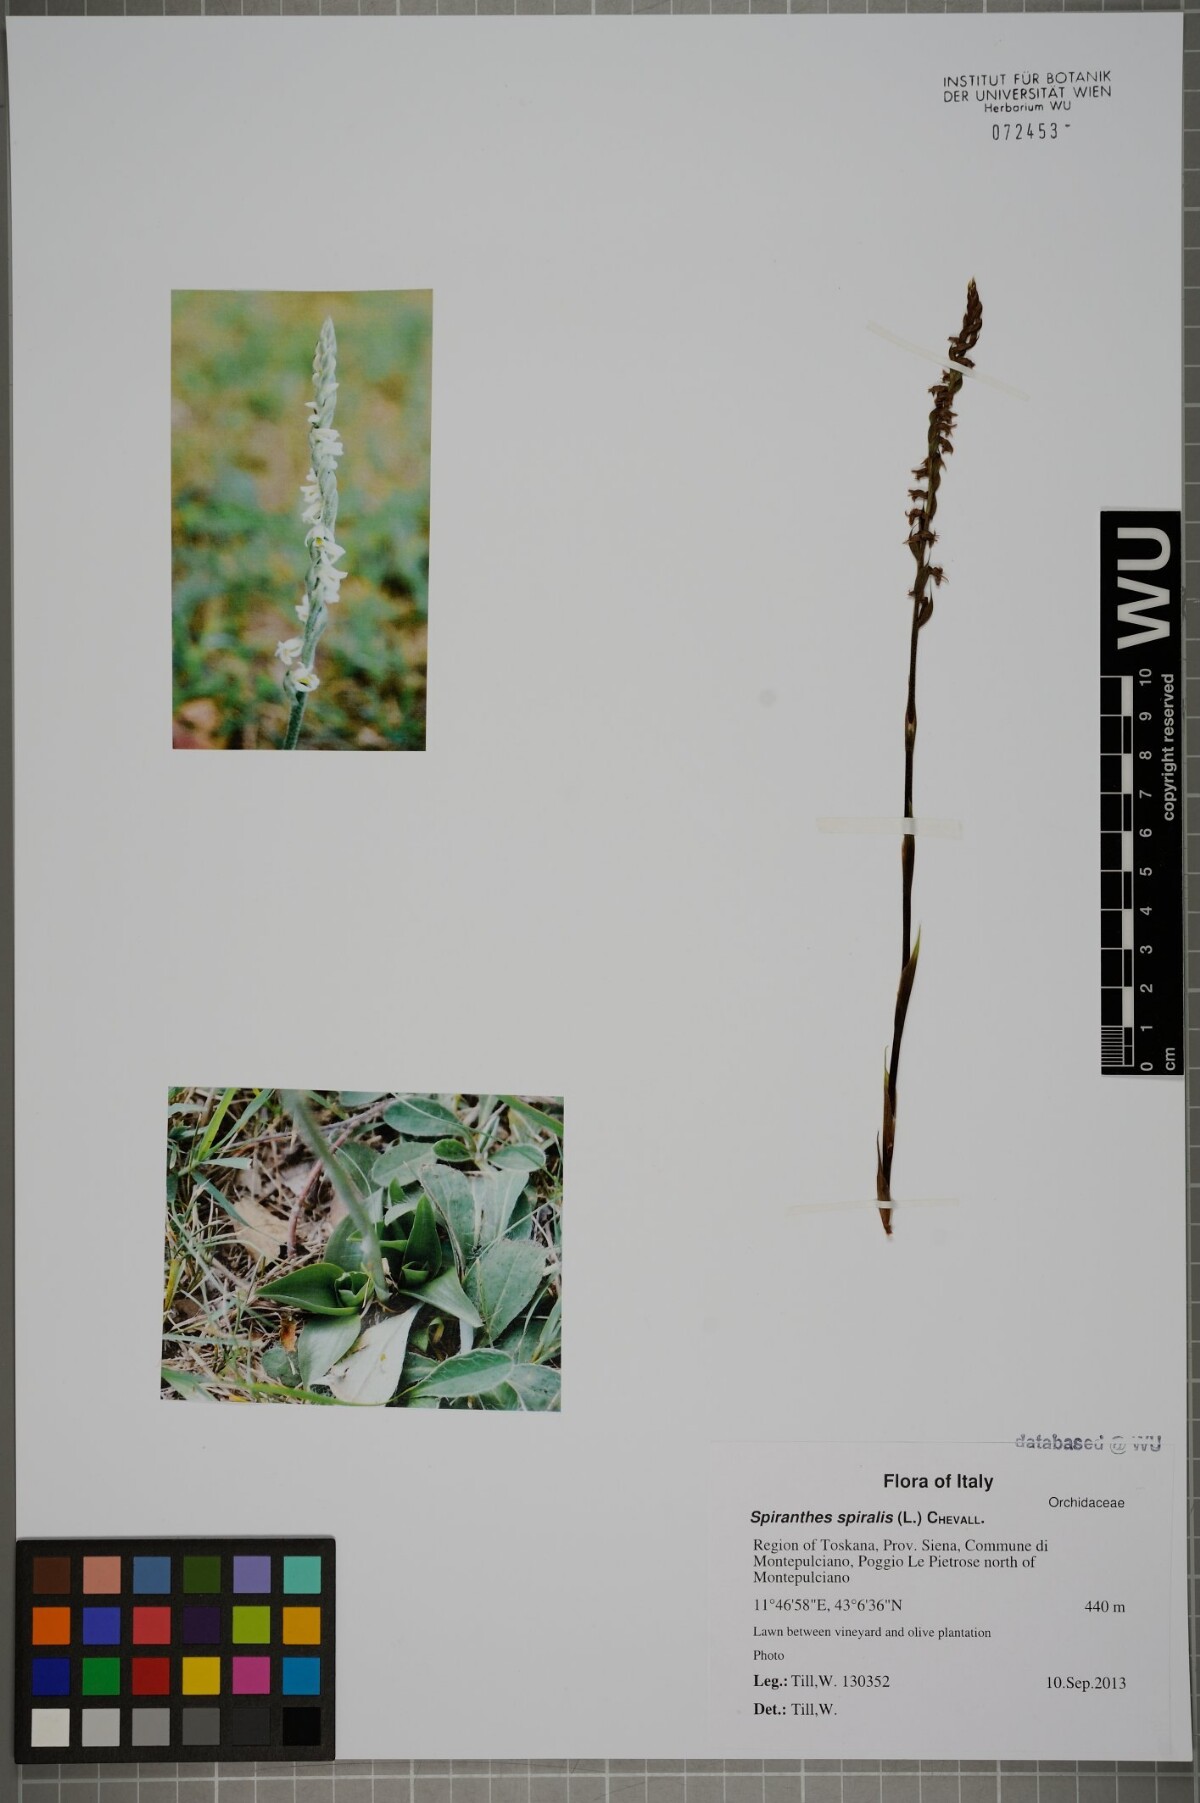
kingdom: Plantae
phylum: Tracheophyta
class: Liliopsida
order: Asparagales
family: Orchidaceae
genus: Spiranthes
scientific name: Spiranthes spiralis
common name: Autumn lady's-tresses
